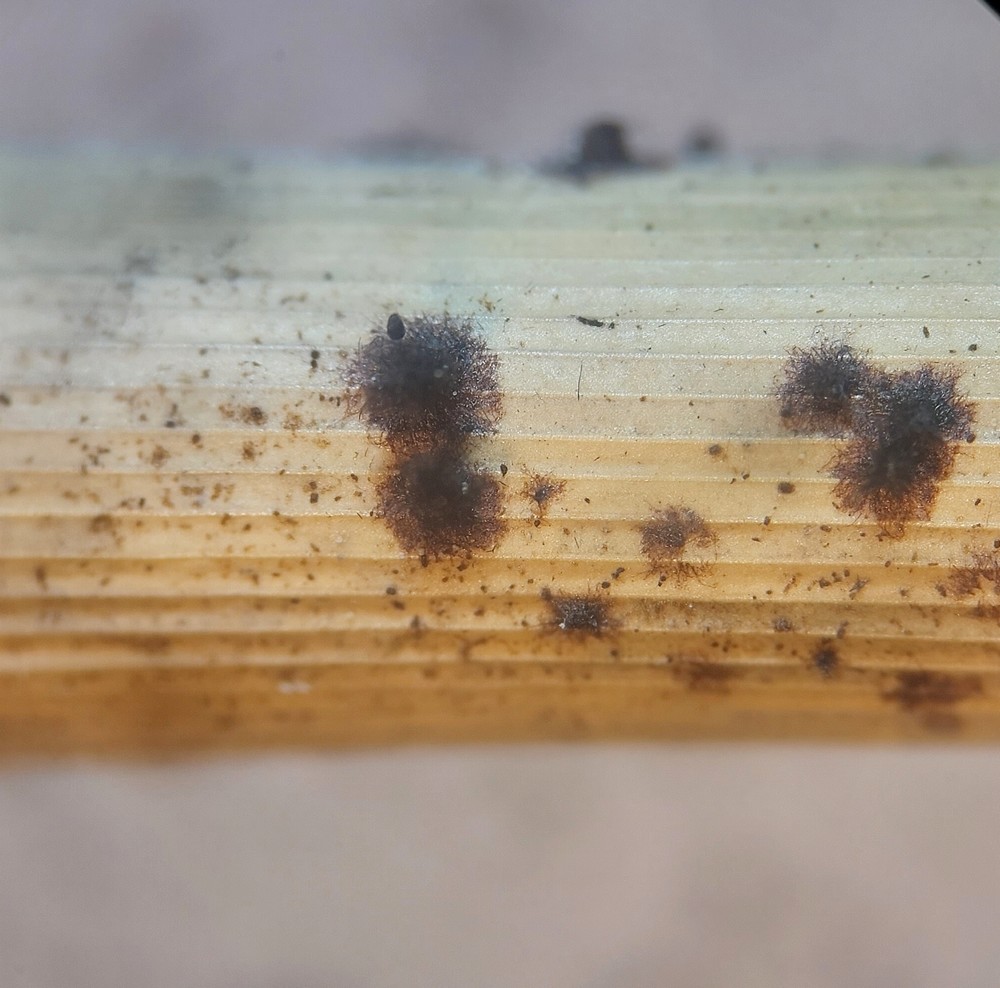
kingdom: Fungi
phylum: Ascomycota
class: Sordariomycetes
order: Sordariales
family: Chaetomiaceae
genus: Chaetomium
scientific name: Chaetomium elatum
